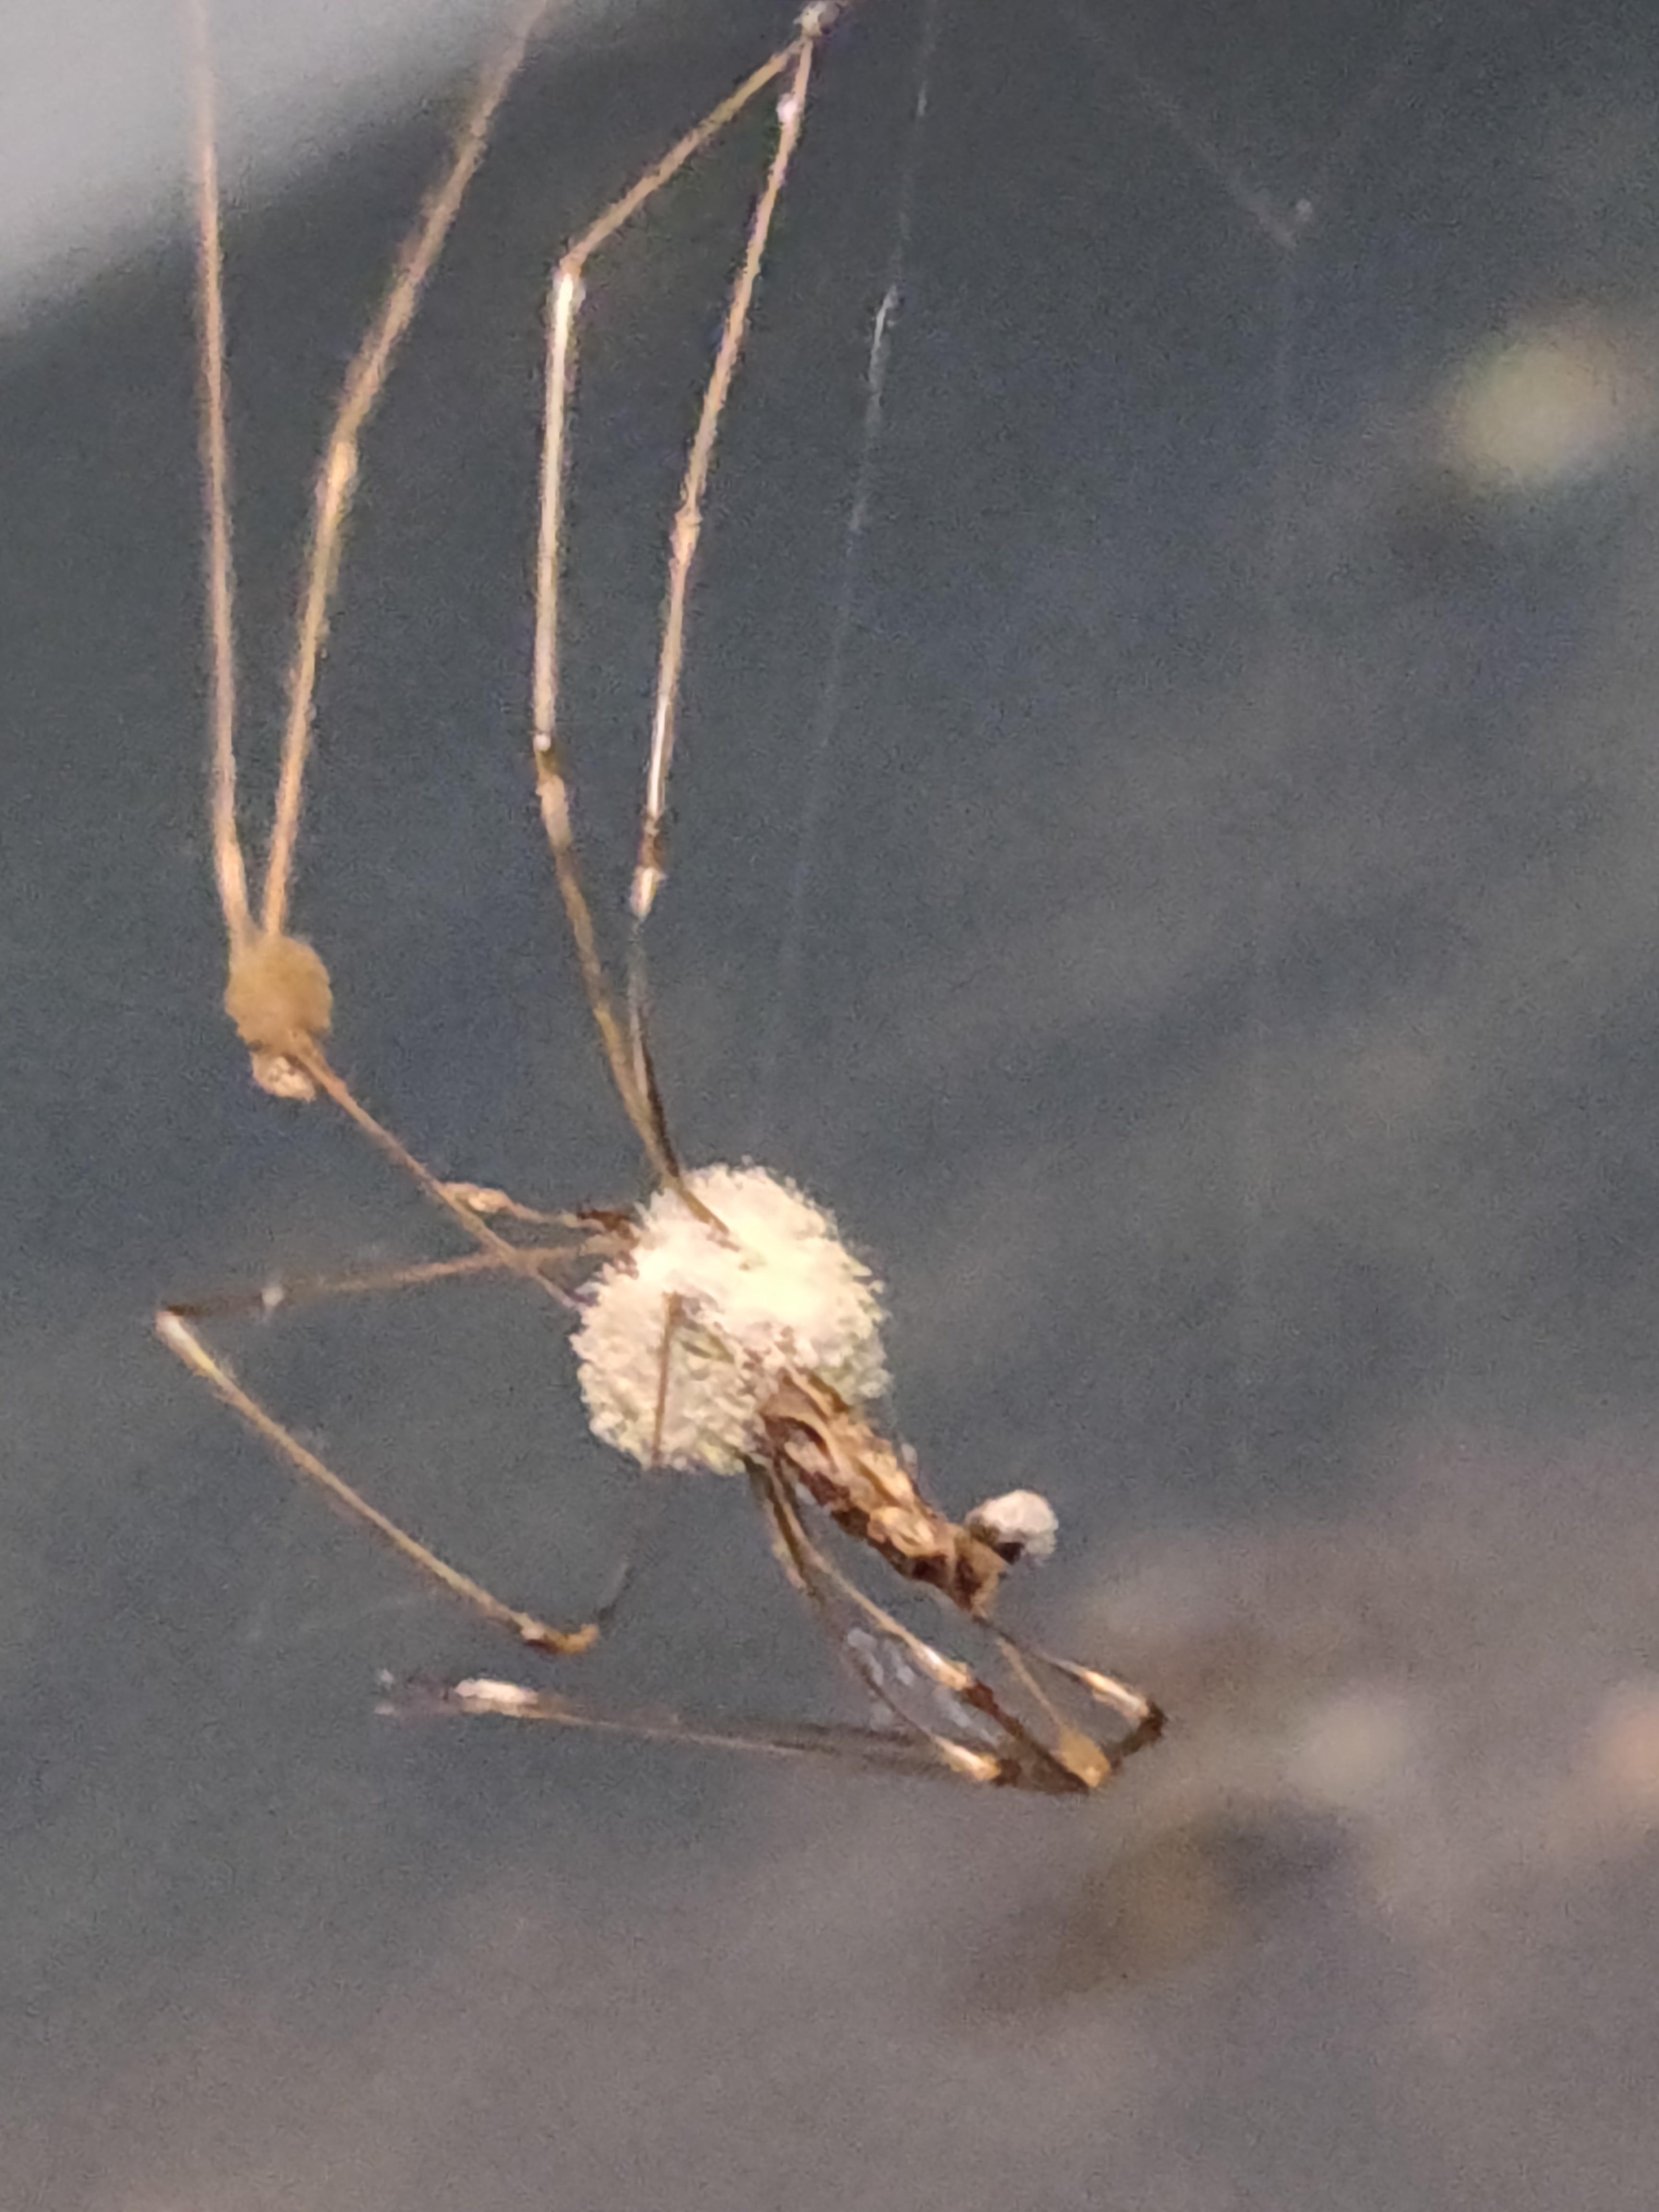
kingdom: Fungi
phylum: Ascomycota
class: Sordariomycetes
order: Hypocreales
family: Cordycipitaceae
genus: Lecanicillium
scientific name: Lecanicillium tenuipes
